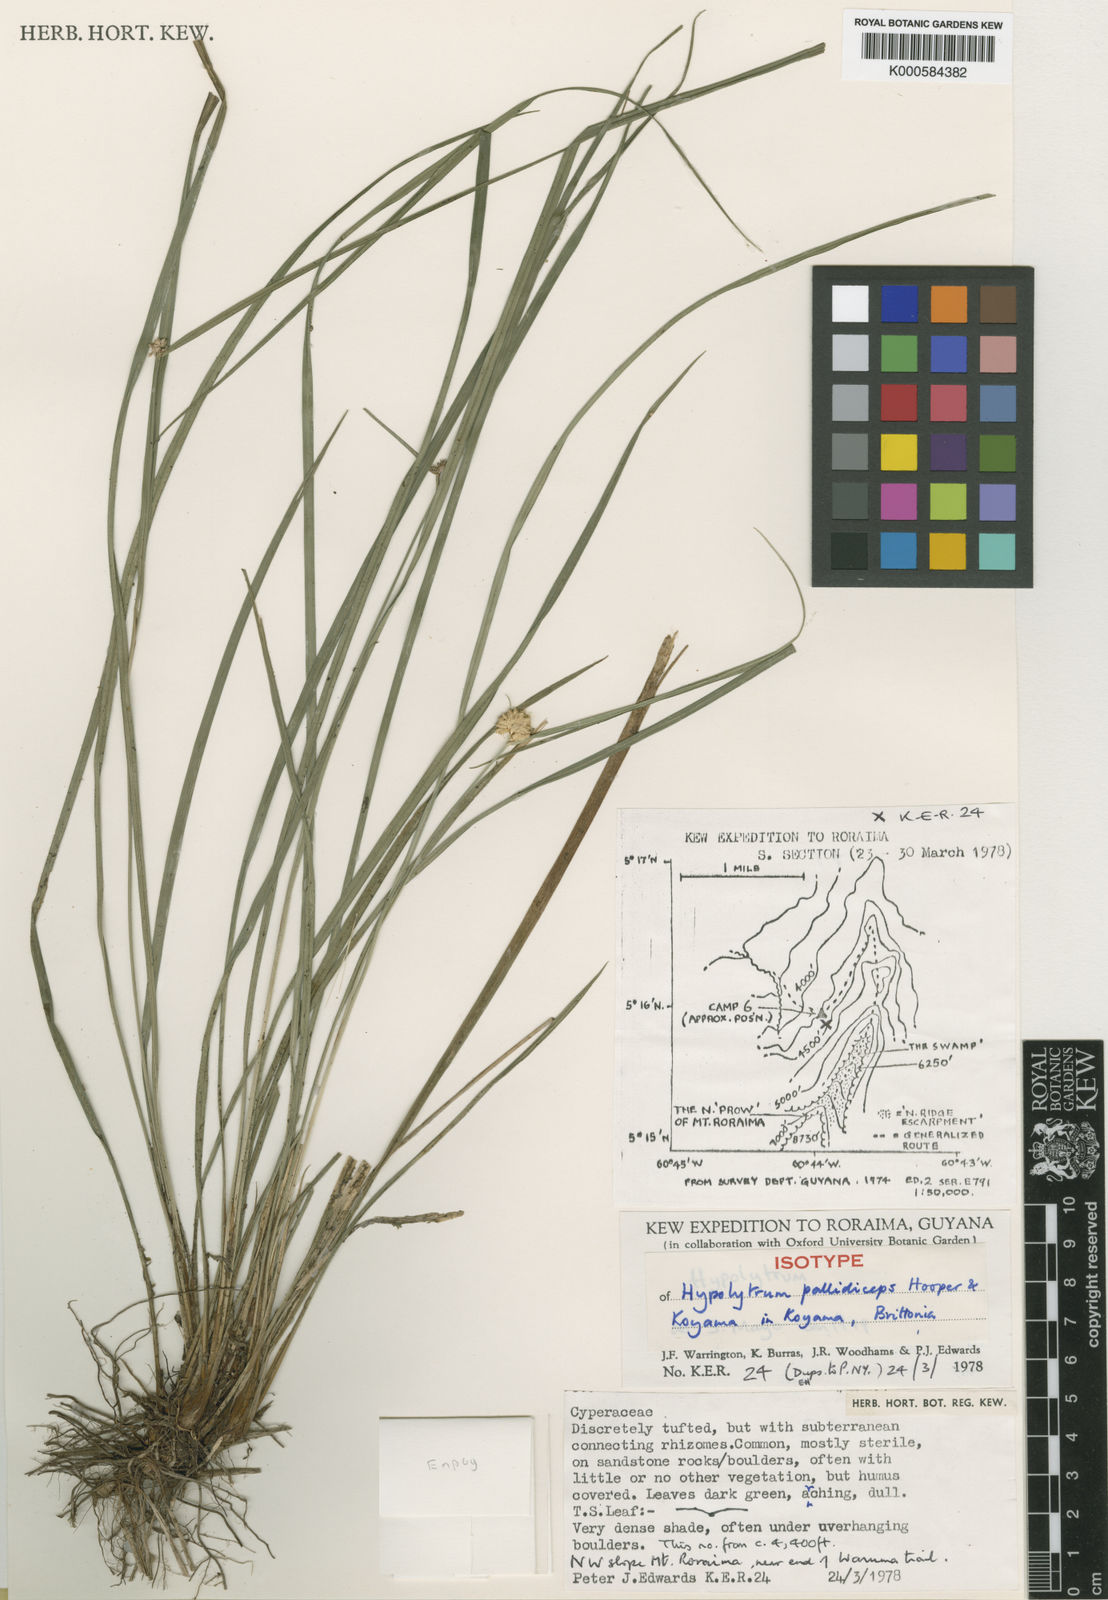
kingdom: Plantae
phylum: Tracheophyta
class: Liliopsida
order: Poales
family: Cyperaceae
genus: Hypolytrum
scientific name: Hypolytrum pallidiceps
